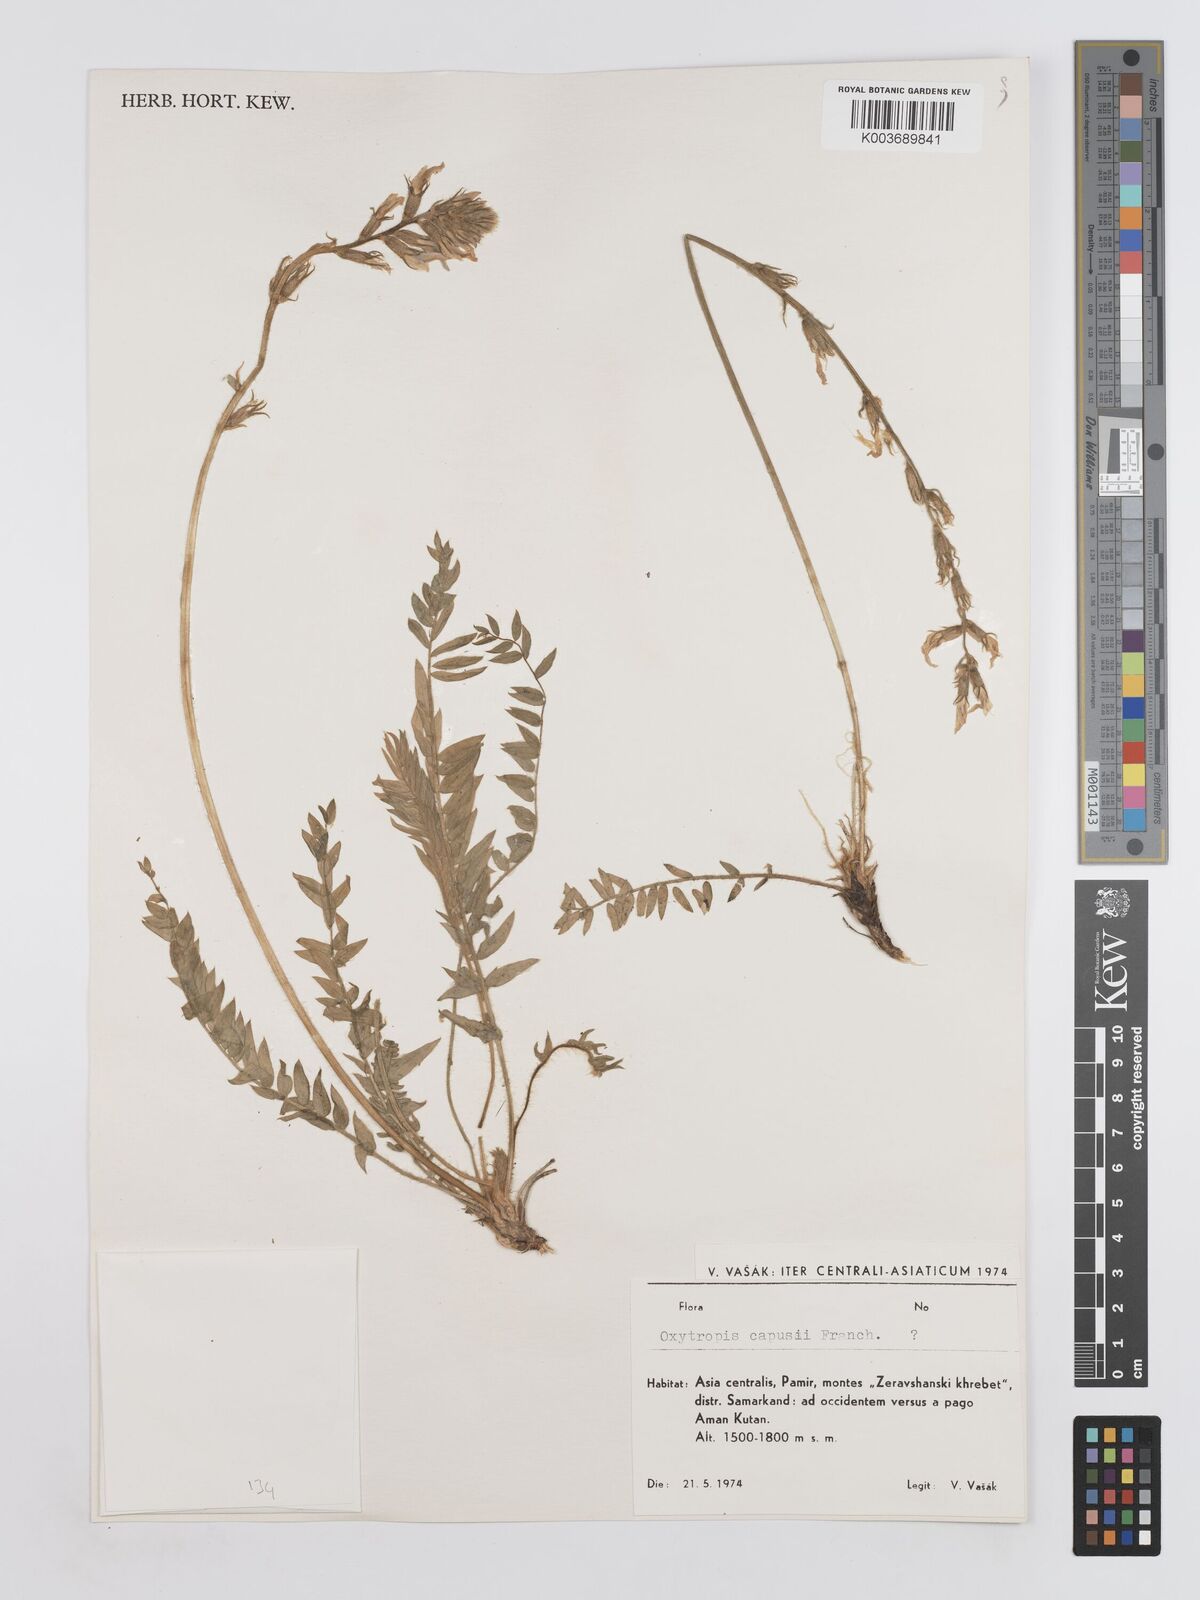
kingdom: Plantae
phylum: Tracheophyta
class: Magnoliopsida
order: Fabales
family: Fabaceae
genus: Oxytropis
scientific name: Oxytropis capusii
